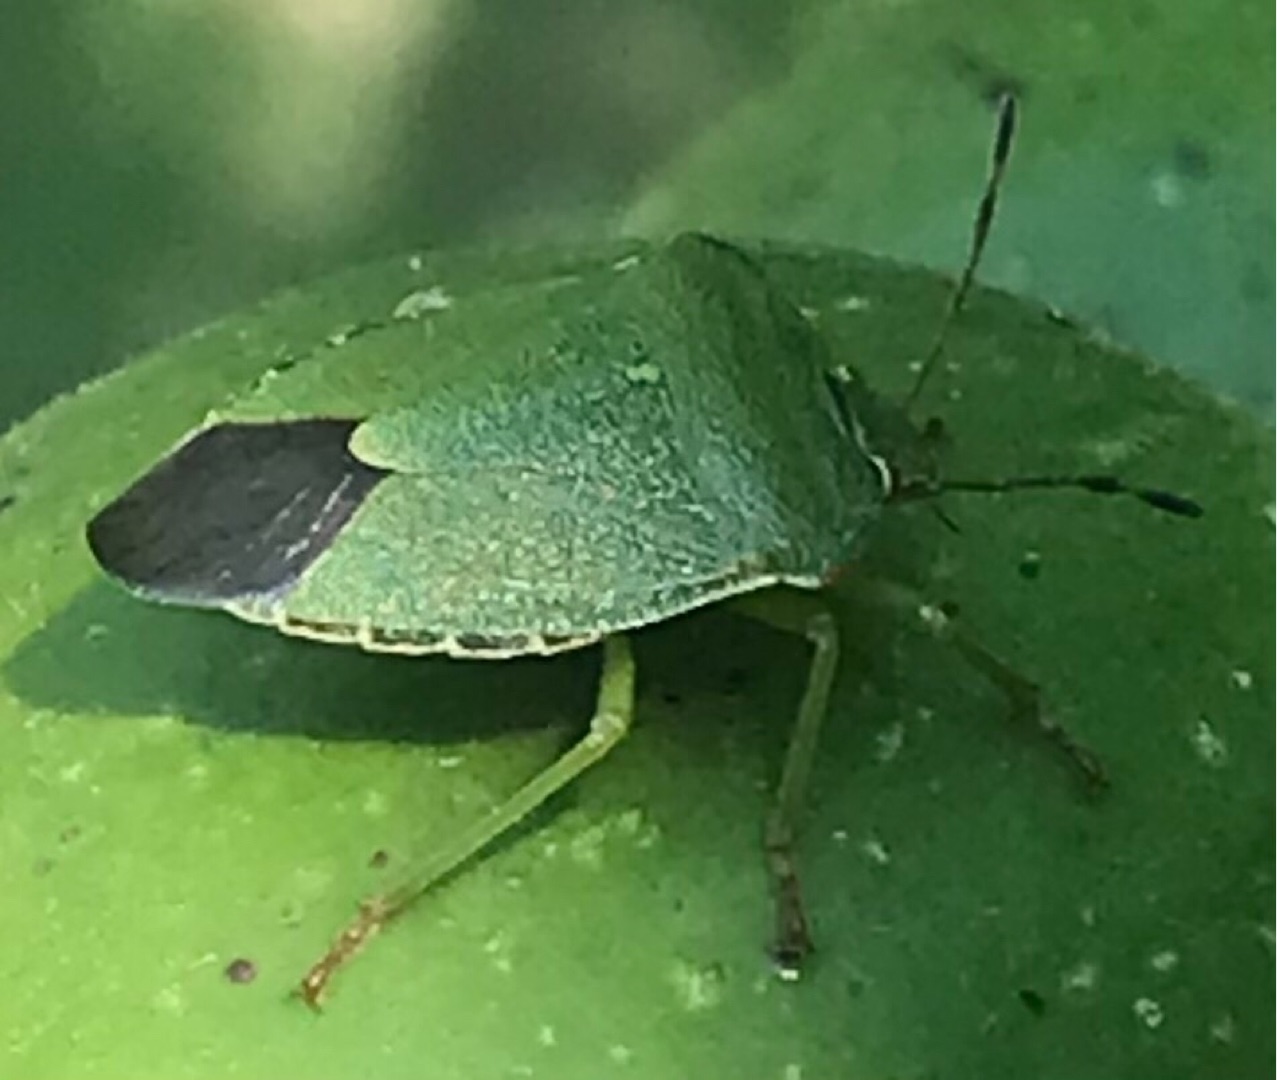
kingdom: Animalia
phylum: Arthropoda
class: Insecta
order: Hemiptera
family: Pentatomidae
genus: Palomena
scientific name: Palomena prasina
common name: Grøn bredtæge
